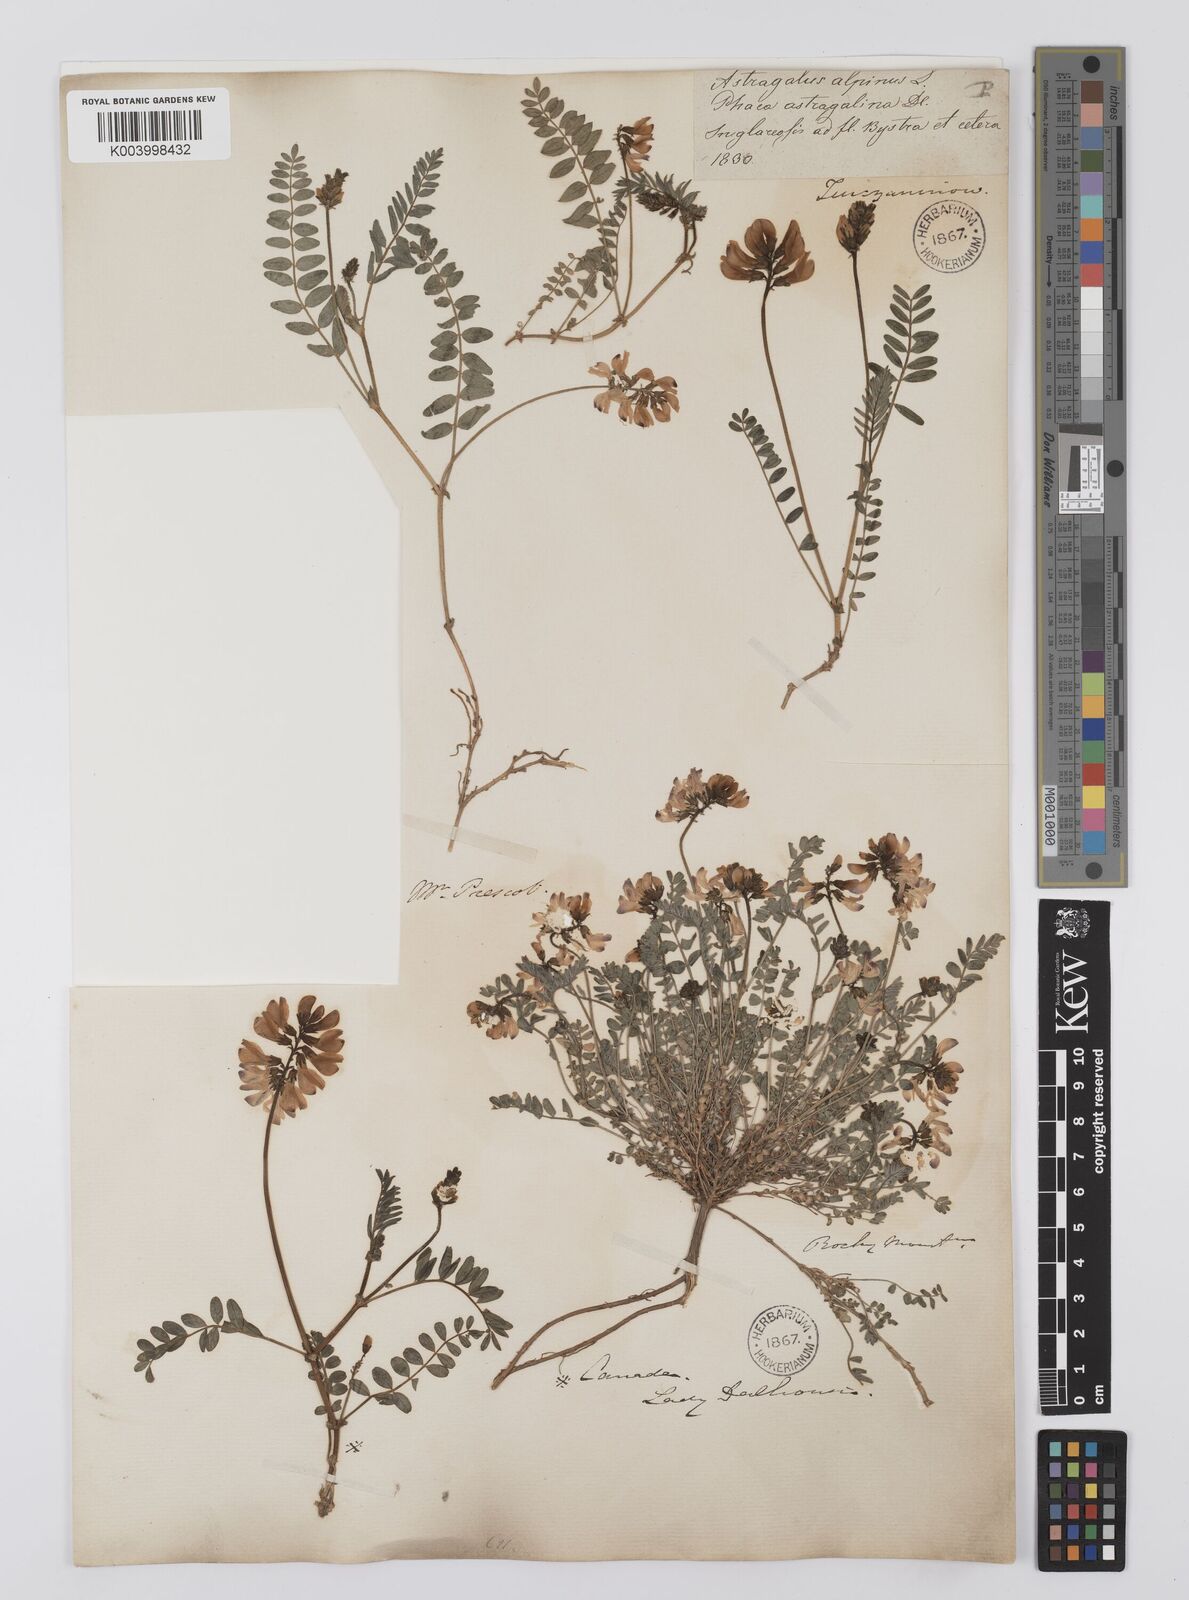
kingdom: Plantae
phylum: Tracheophyta
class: Magnoliopsida
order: Fabales
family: Fabaceae
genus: Astragalus
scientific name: Astragalus
